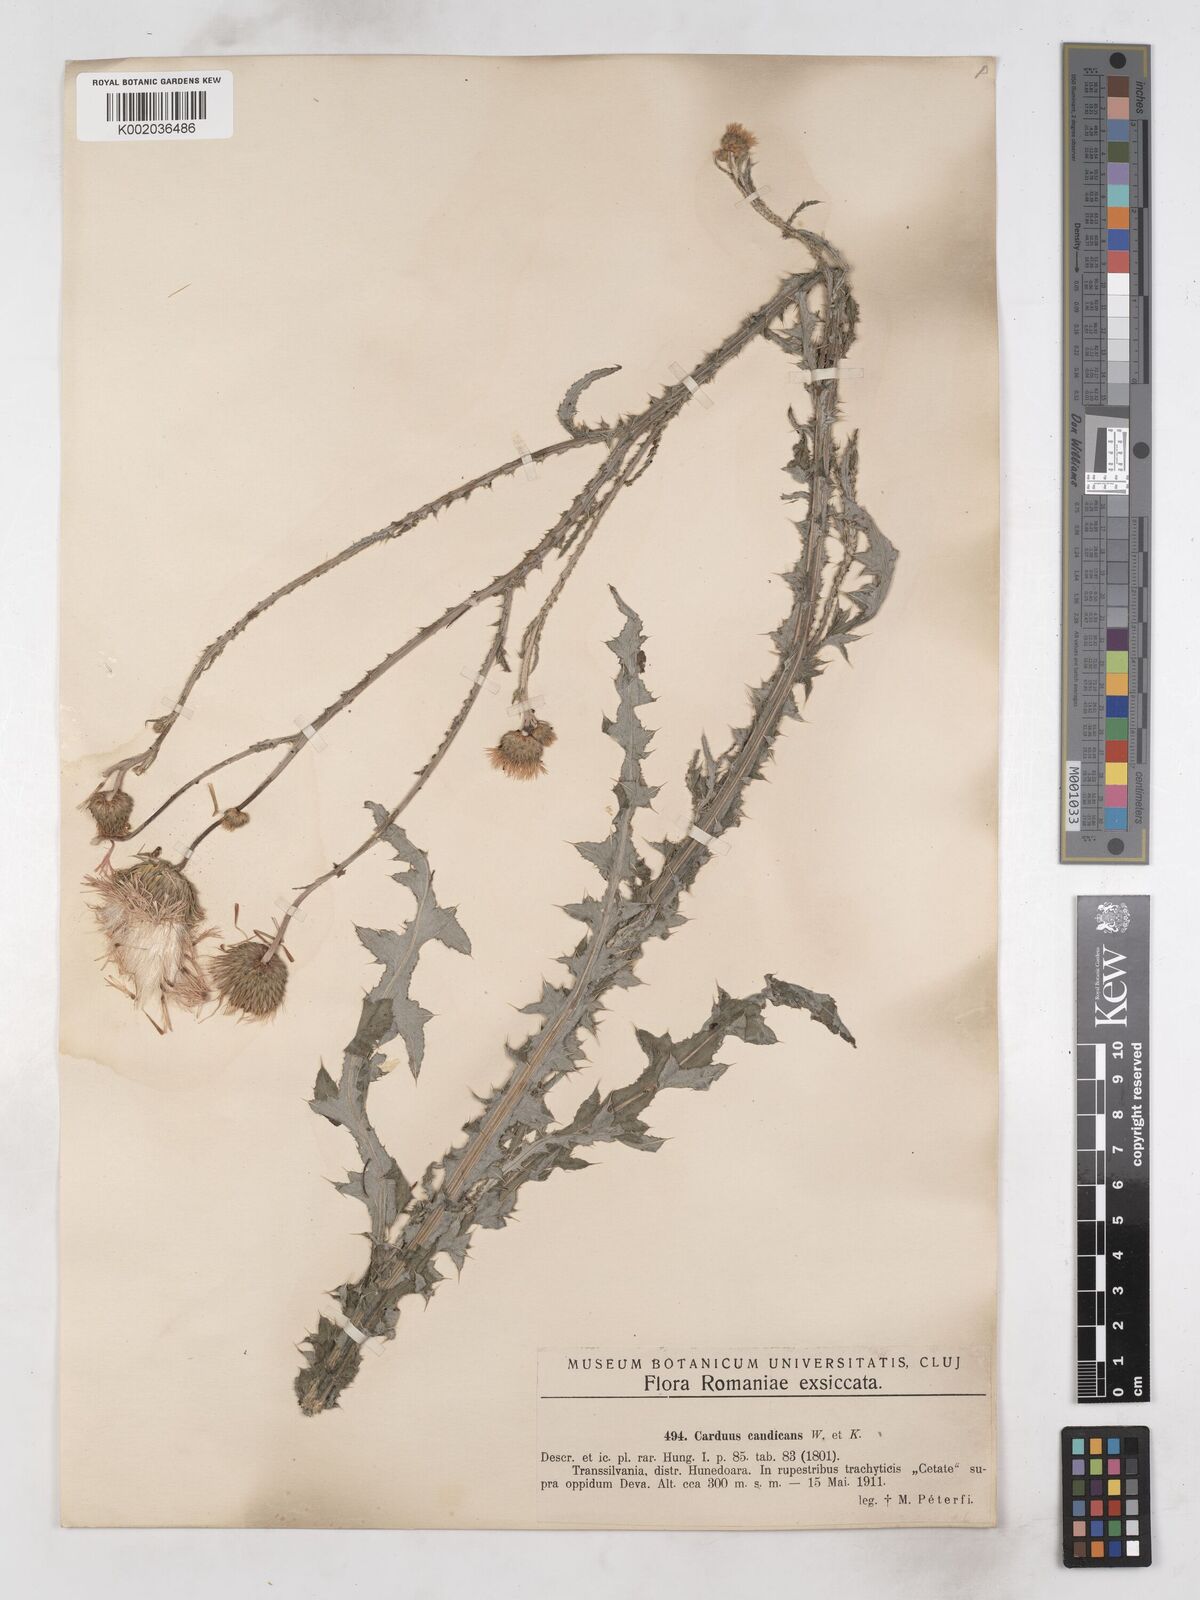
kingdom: Plantae
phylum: Tracheophyta
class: Magnoliopsida
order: Asterales
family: Asteraceae
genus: Carduus
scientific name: Carduus candicans
